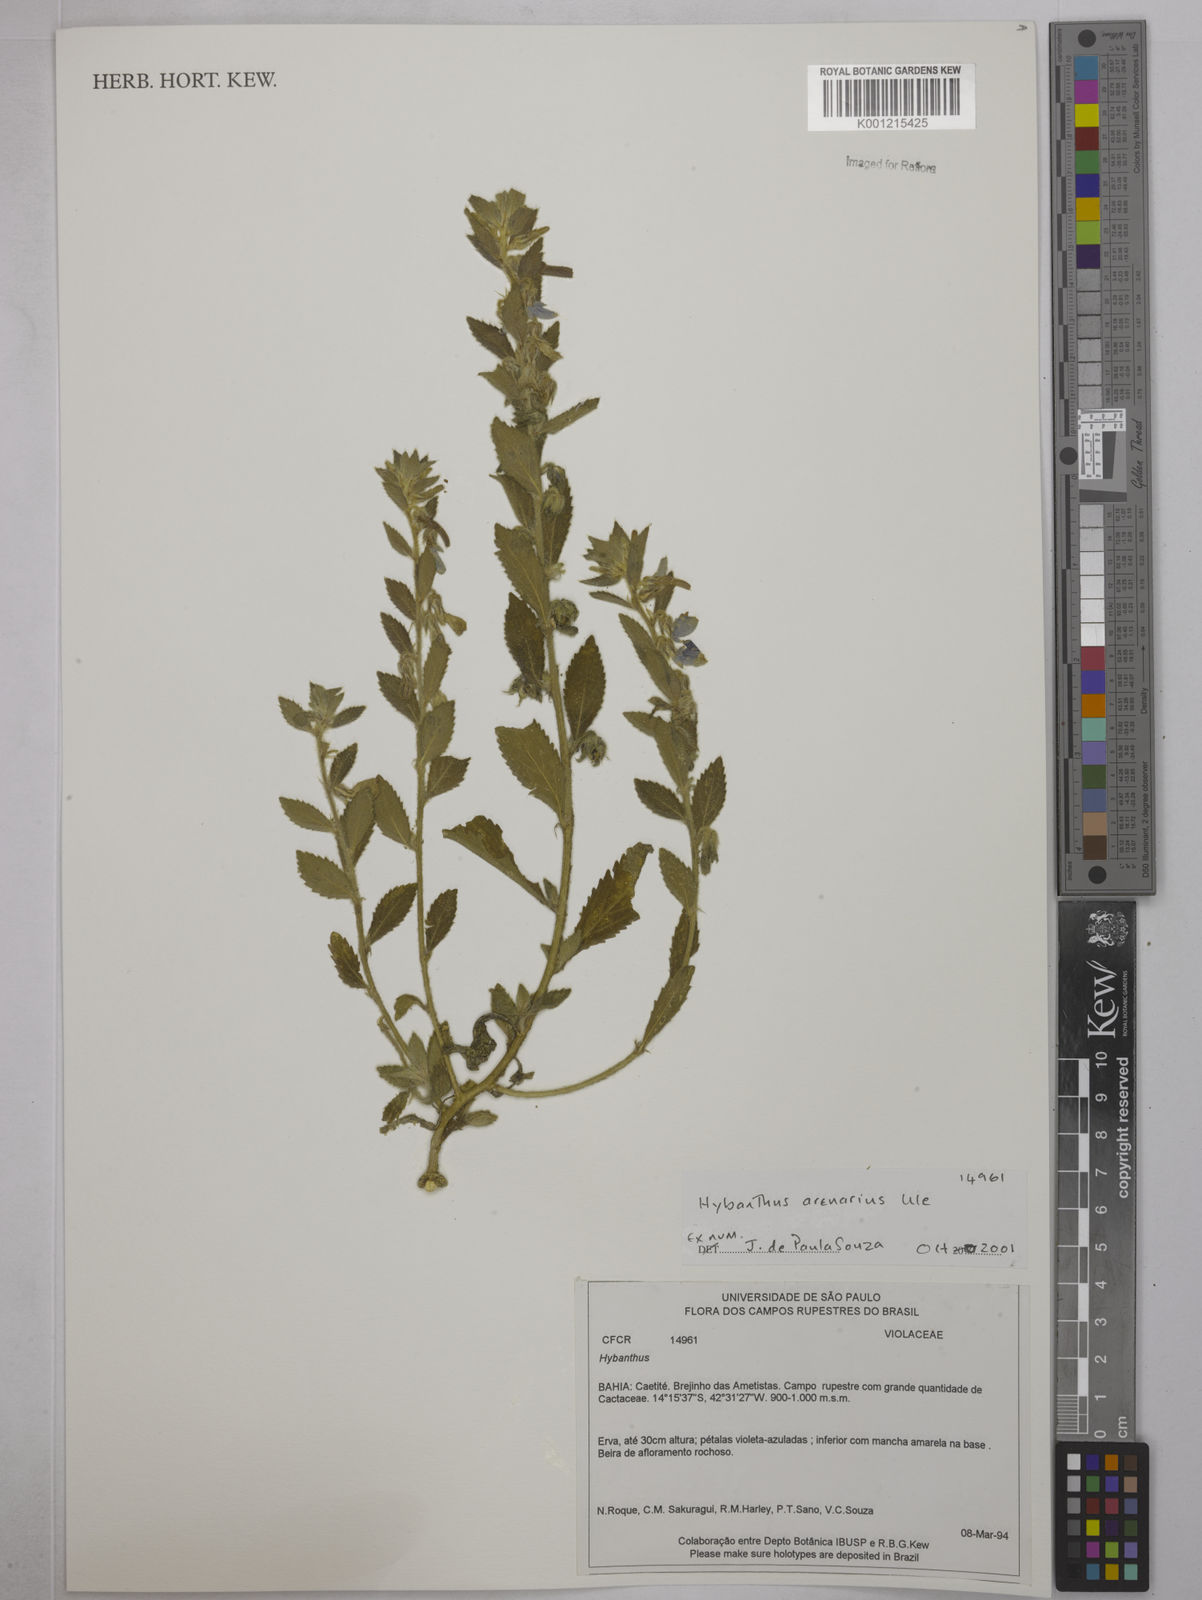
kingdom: Plantae
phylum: Tracheophyta
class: Magnoliopsida
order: Malpighiales
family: Violaceae
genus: Pombalia
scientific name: Pombalia arenaria
